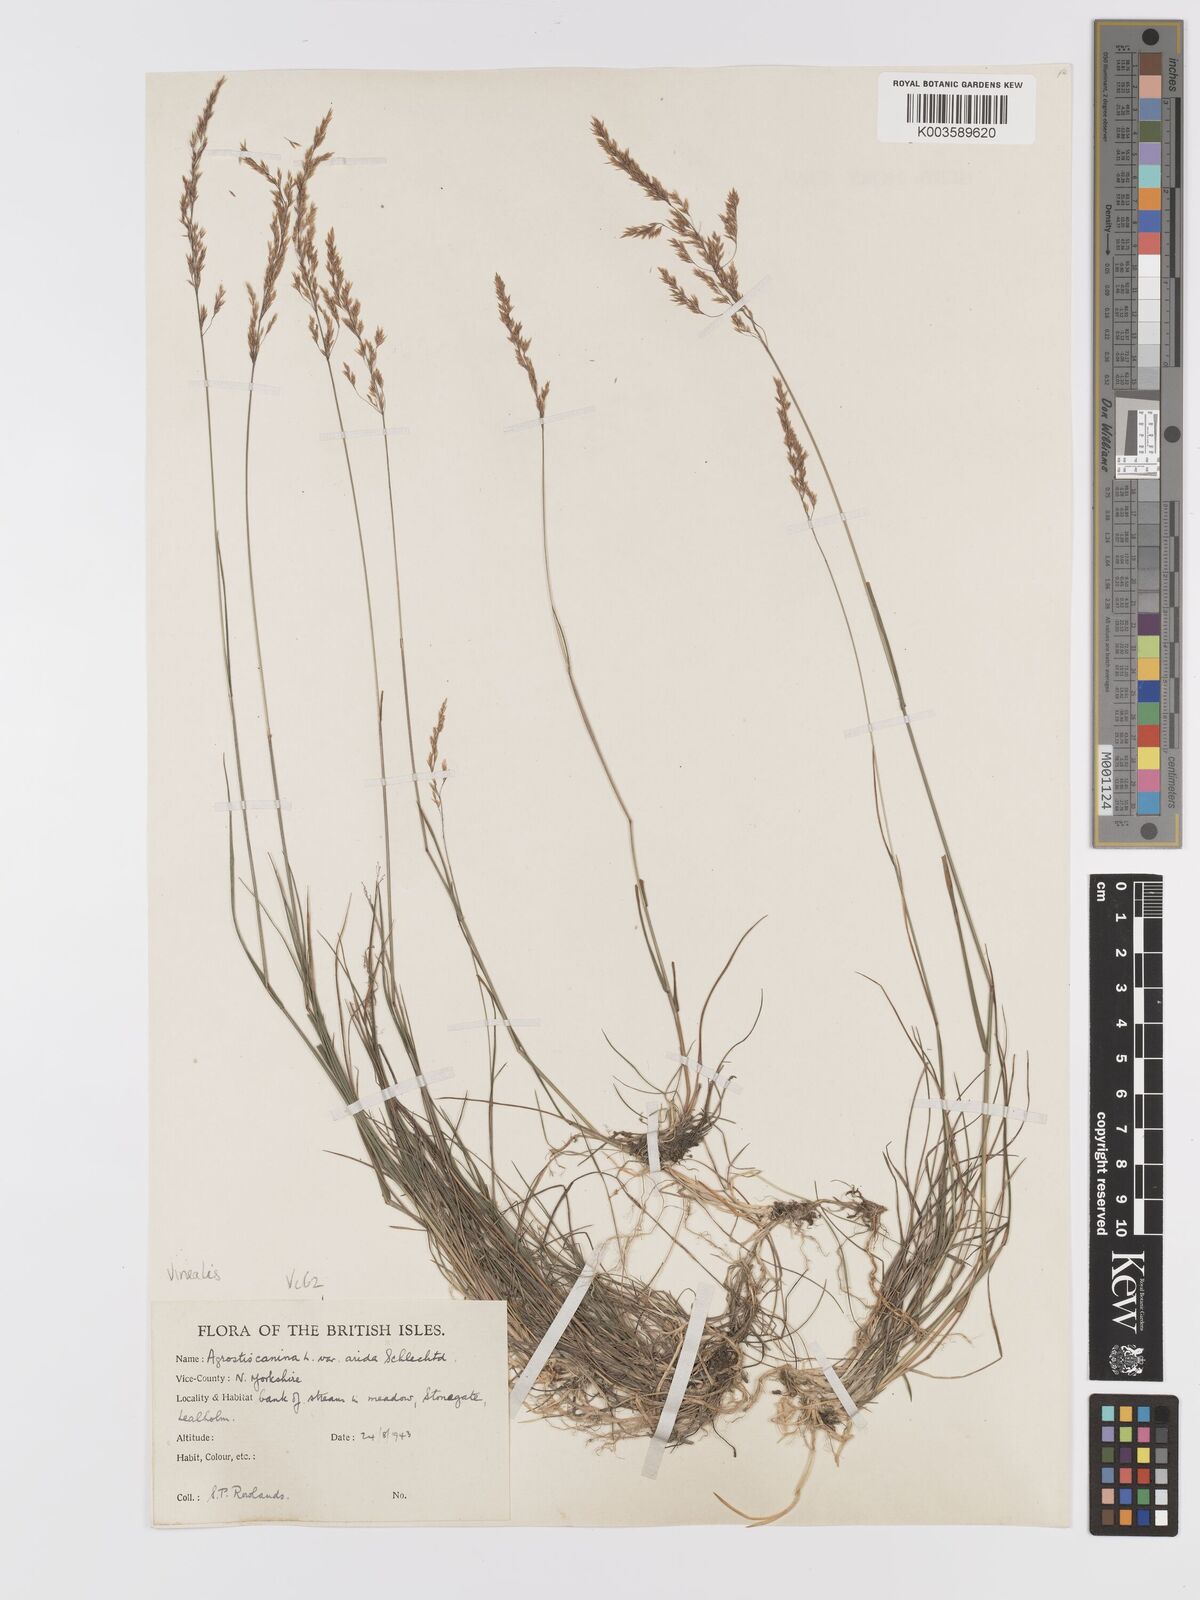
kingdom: Plantae
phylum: Tracheophyta
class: Liliopsida
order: Poales
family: Poaceae
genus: Agrostis
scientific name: Agrostis
